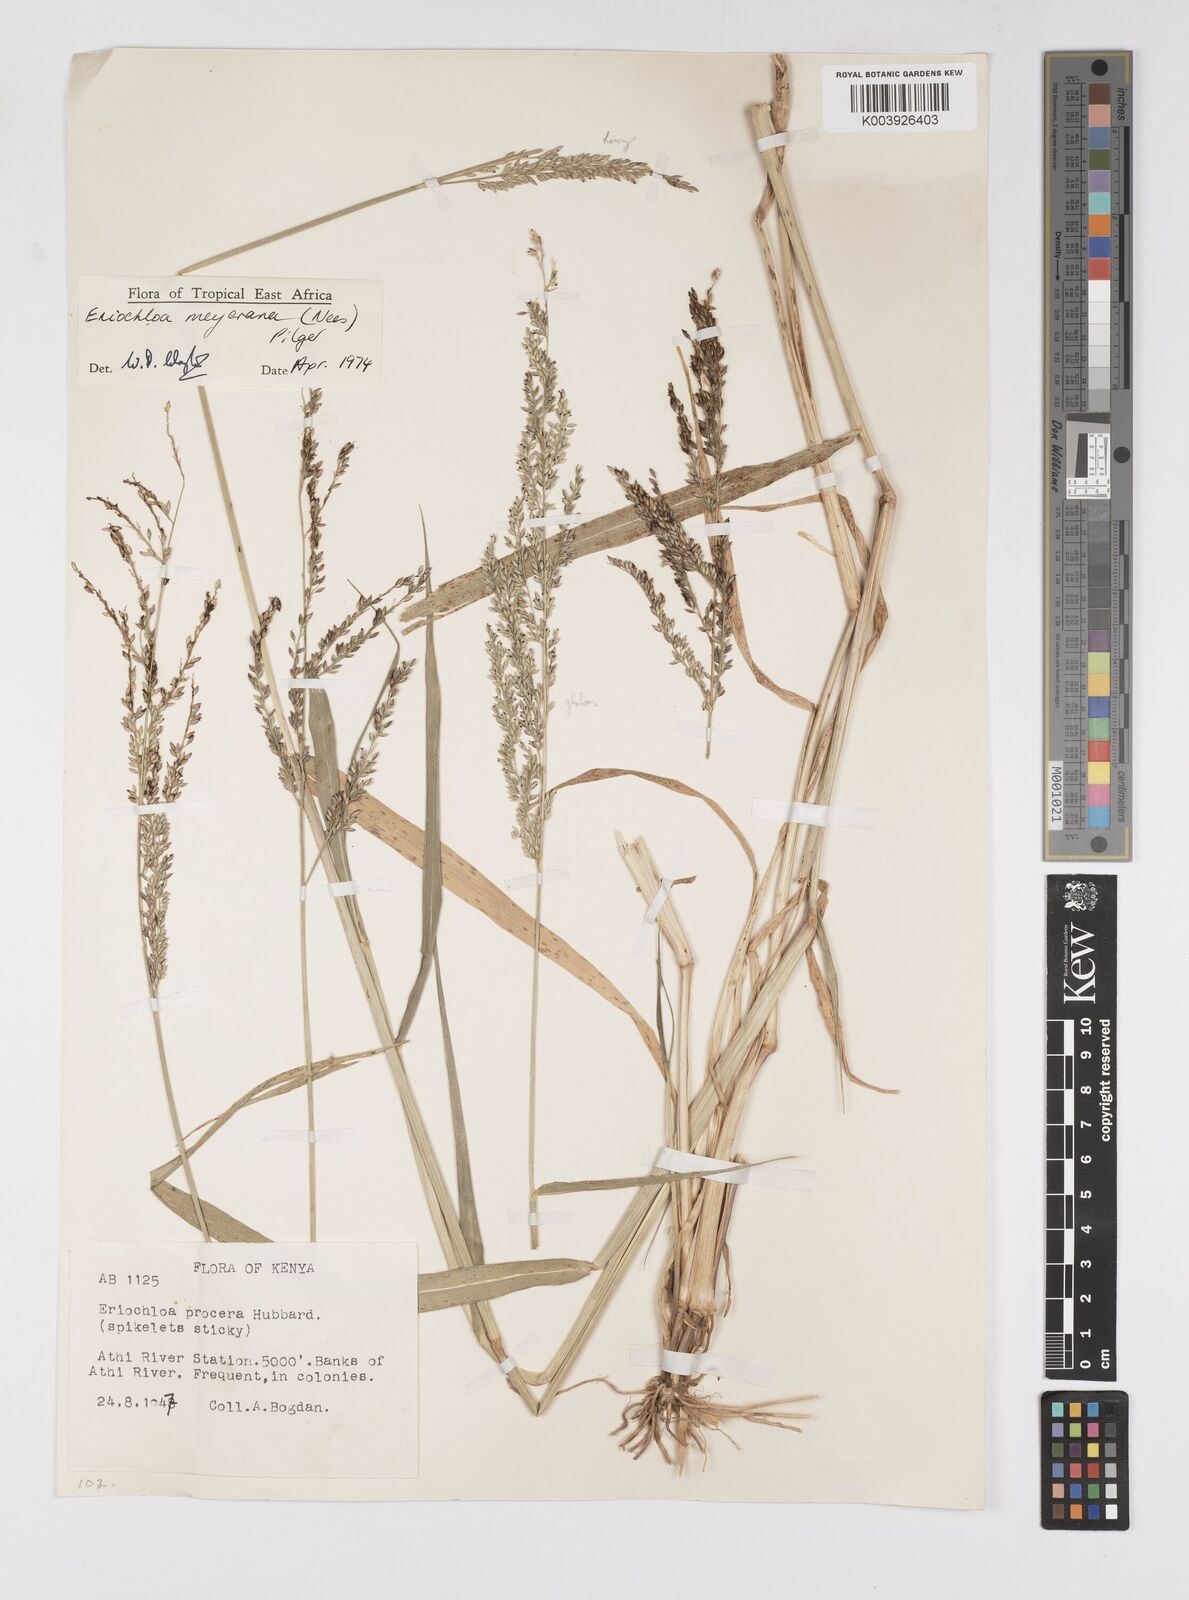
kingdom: Plantae
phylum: Tracheophyta
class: Liliopsida
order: Poales
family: Poaceae
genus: Eriochloa
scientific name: Eriochloa meyeriana
